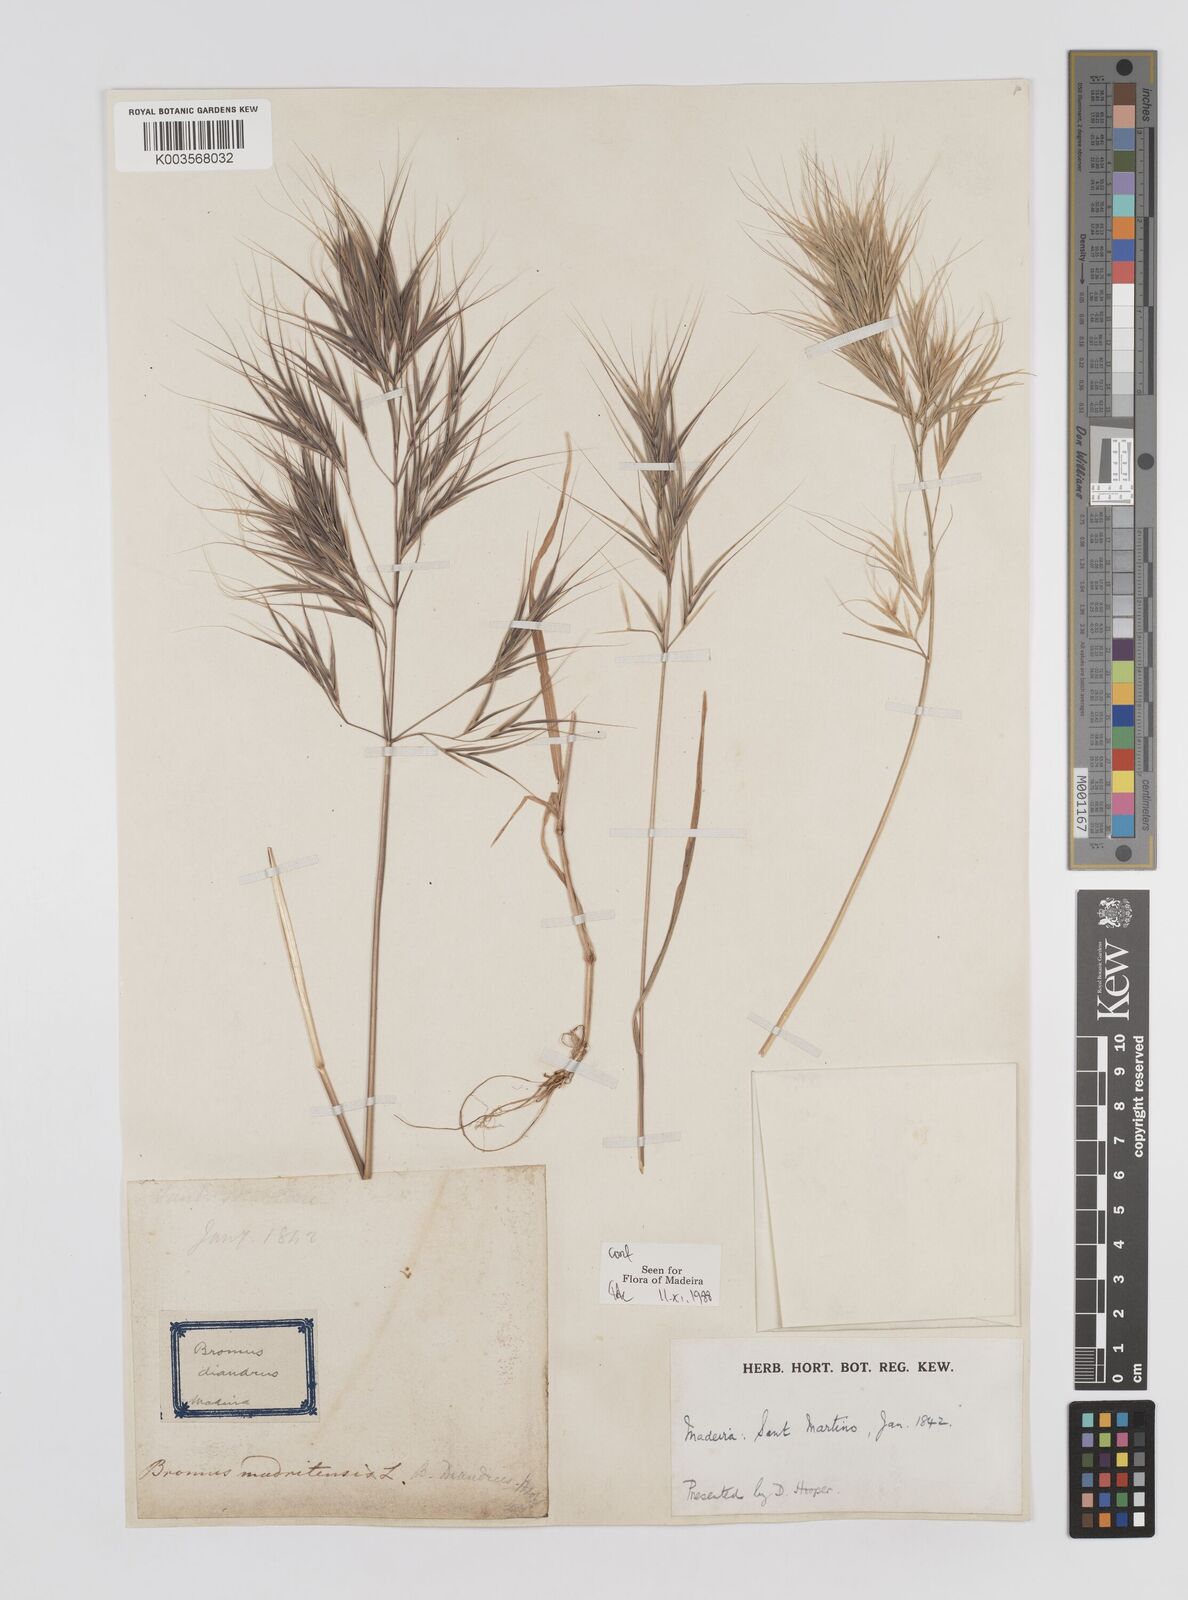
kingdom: Plantae
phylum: Tracheophyta
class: Liliopsida
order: Poales
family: Poaceae
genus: Bromus
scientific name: Bromus
